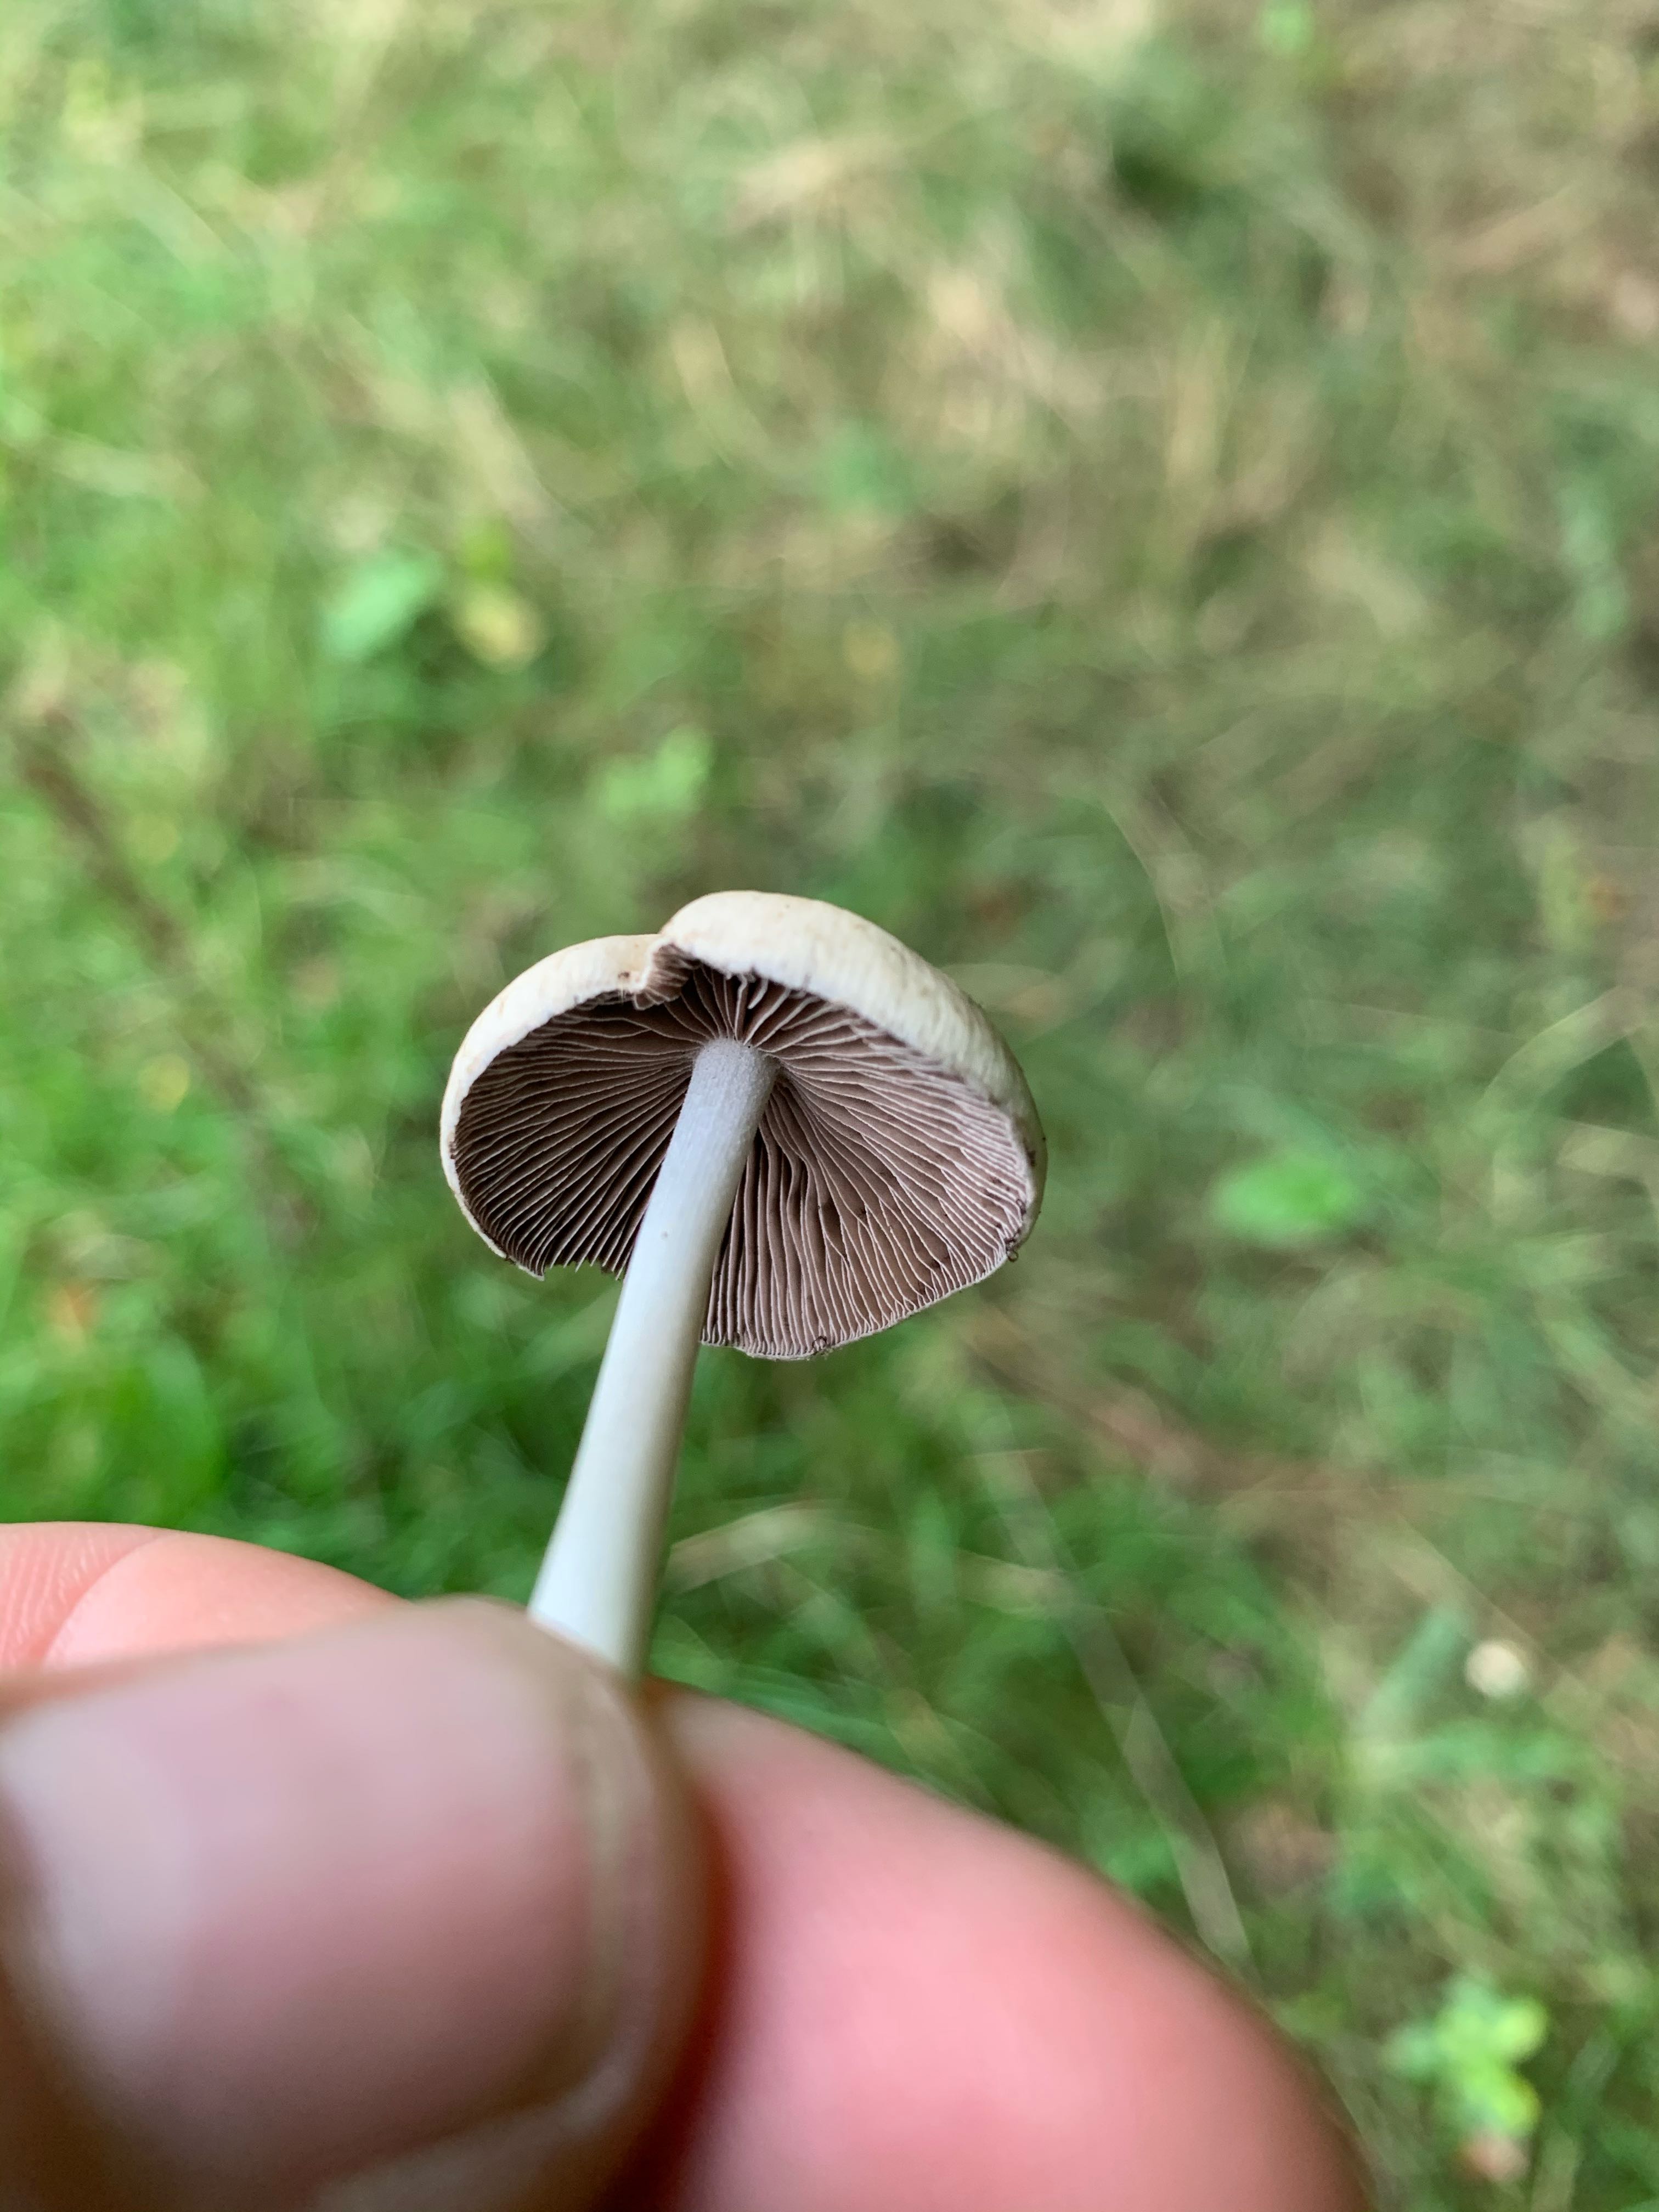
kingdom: Fungi
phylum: Basidiomycota
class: Agaricomycetes
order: Agaricales
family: Psathyrellaceae
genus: Psathyrella
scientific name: Psathyrella
